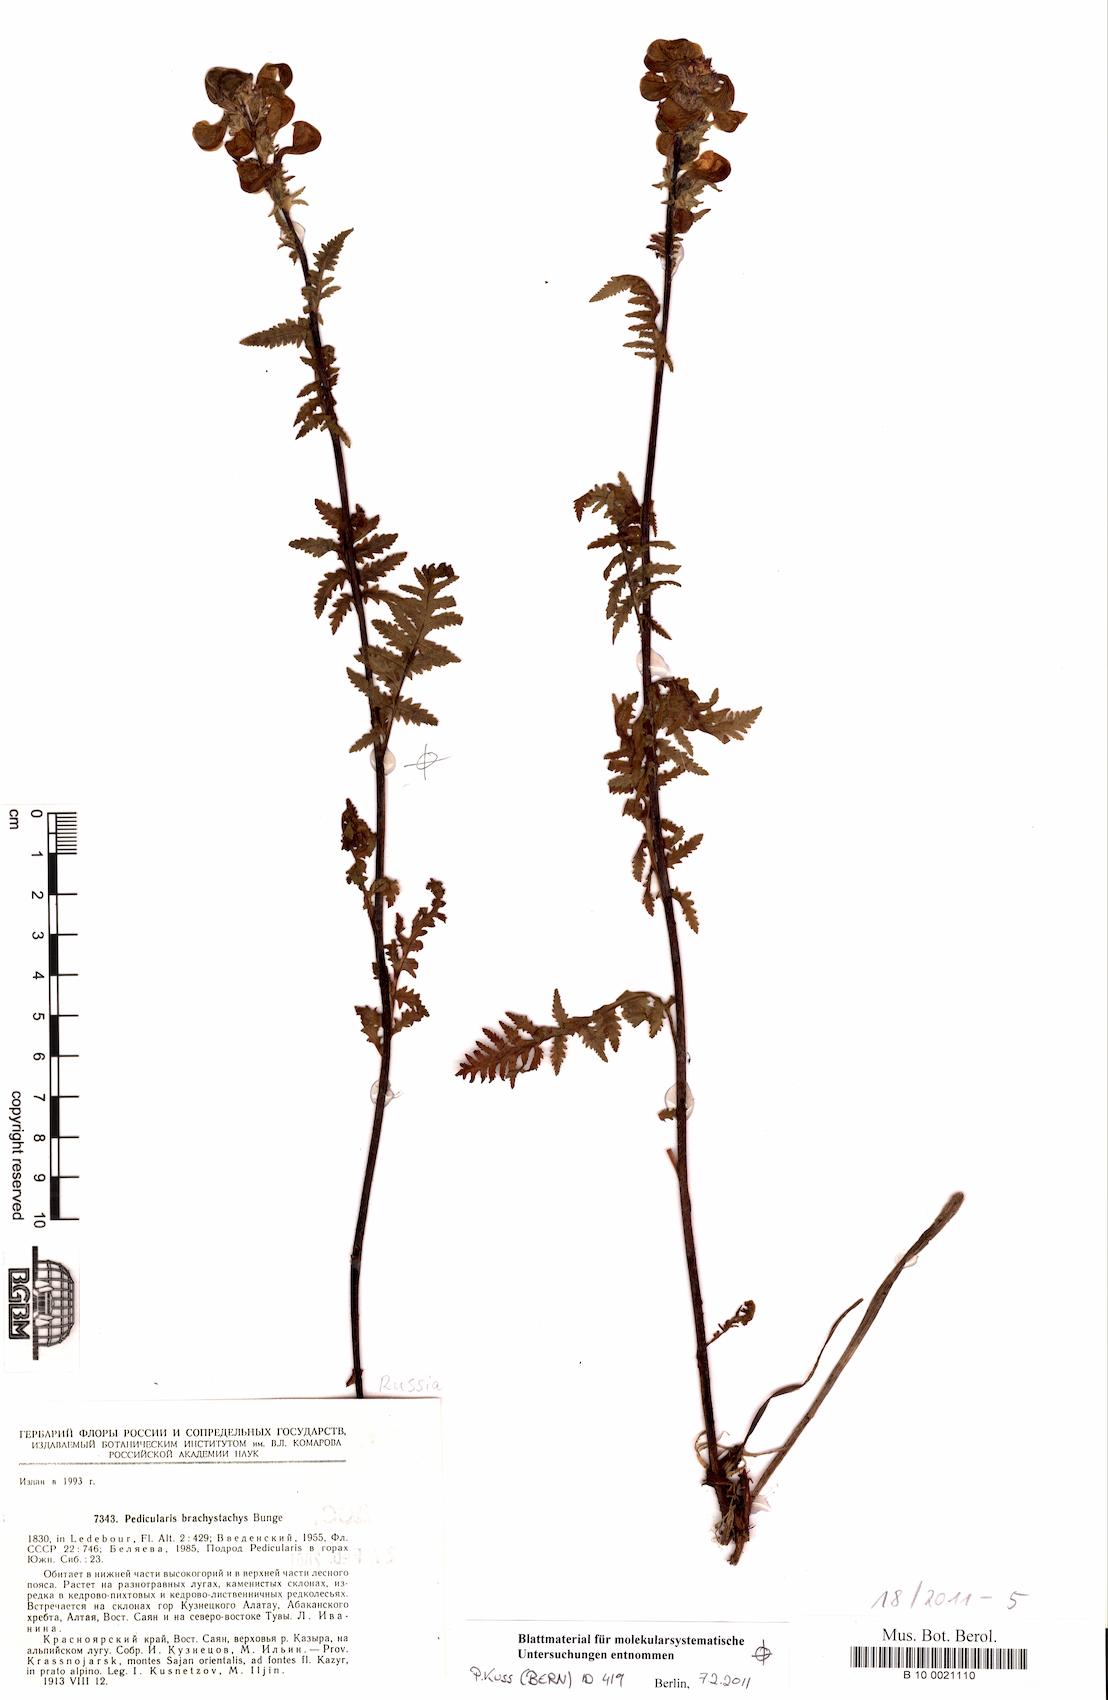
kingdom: Plantae
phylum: Tracheophyta
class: Magnoliopsida
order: Lamiales
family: Orobanchaceae
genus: Pedicularis
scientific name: Pedicularis brachystachys
